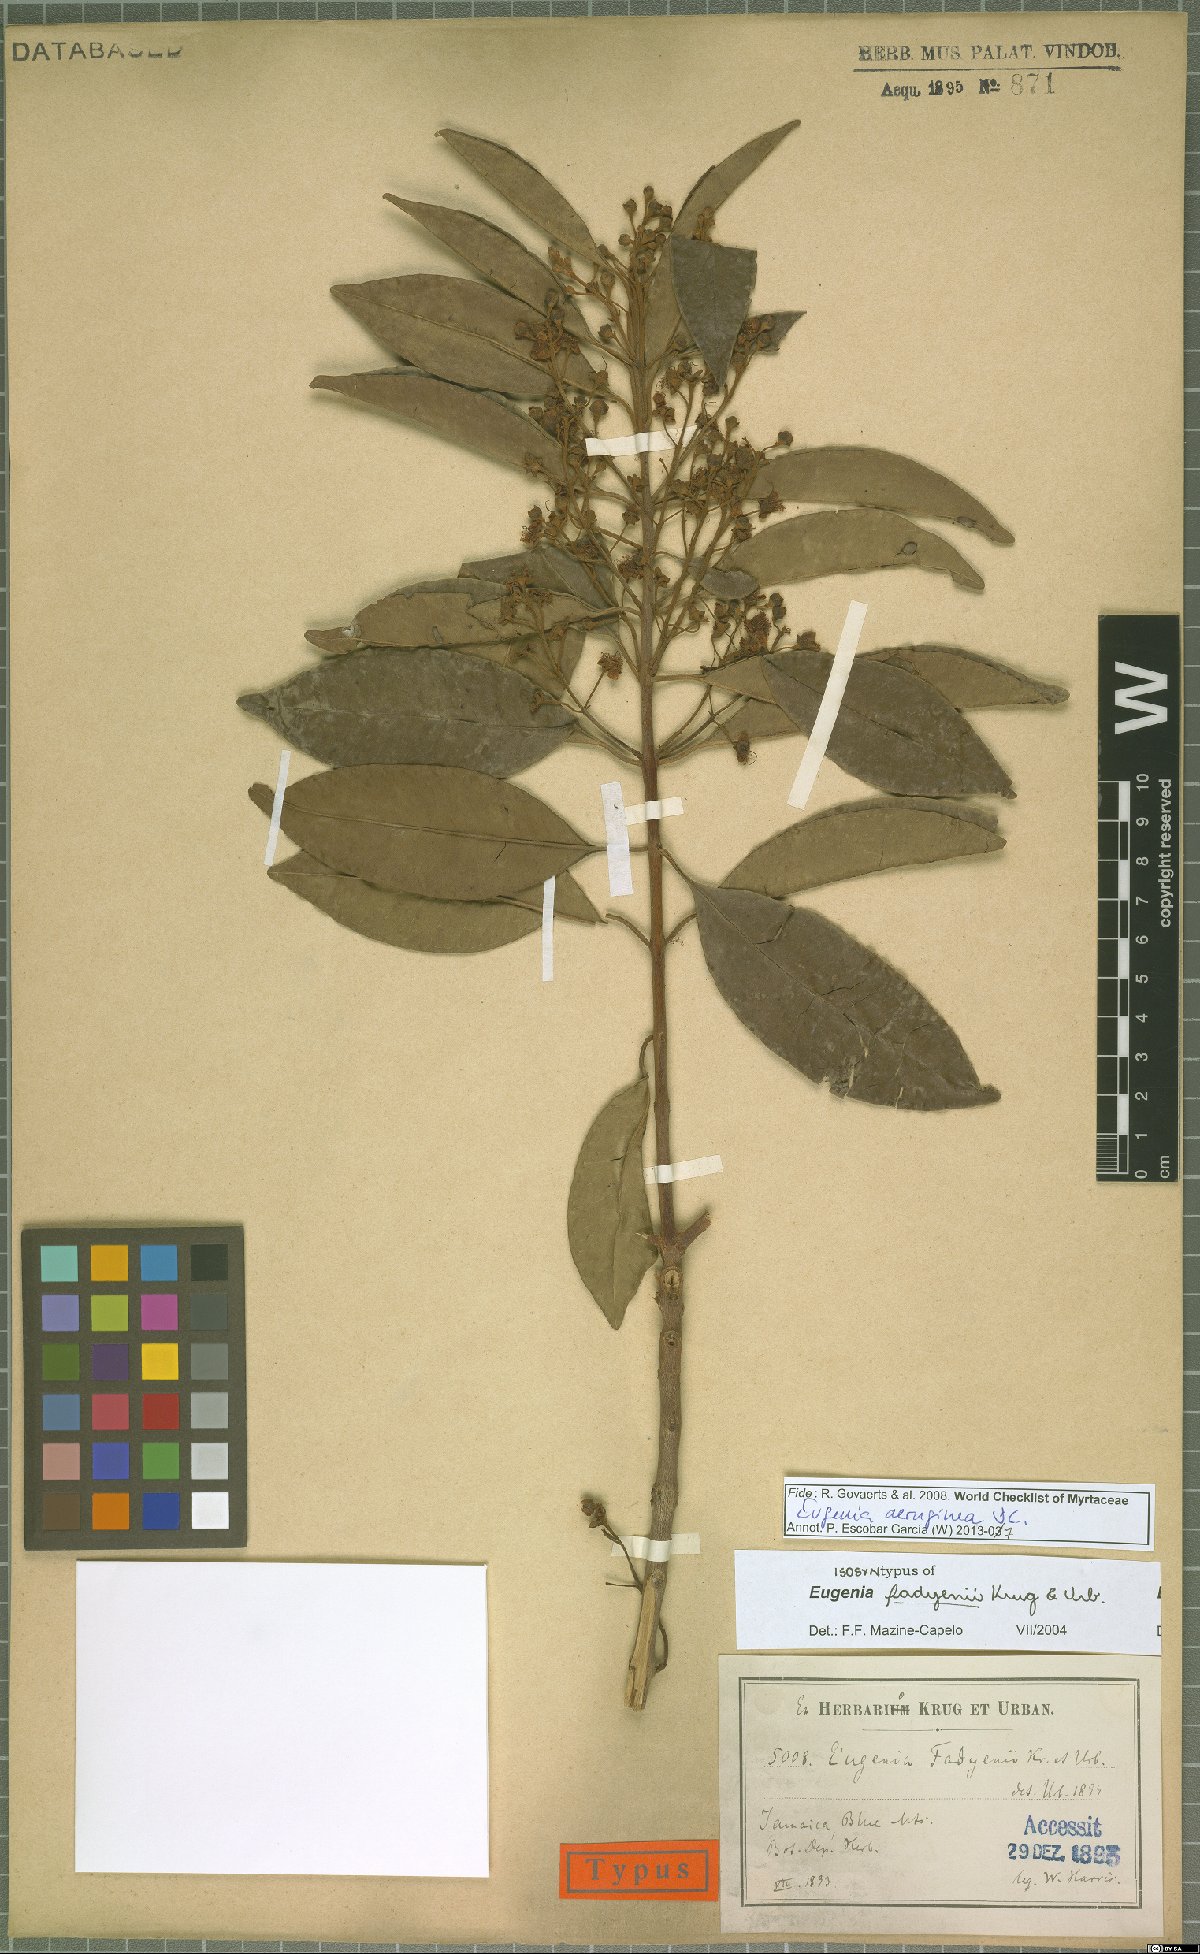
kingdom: Plantae
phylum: Tracheophyta
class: Magnoliopsida
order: Myrtales
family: Myrtaceae
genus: Eugenia
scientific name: Eugenia aeruginea
